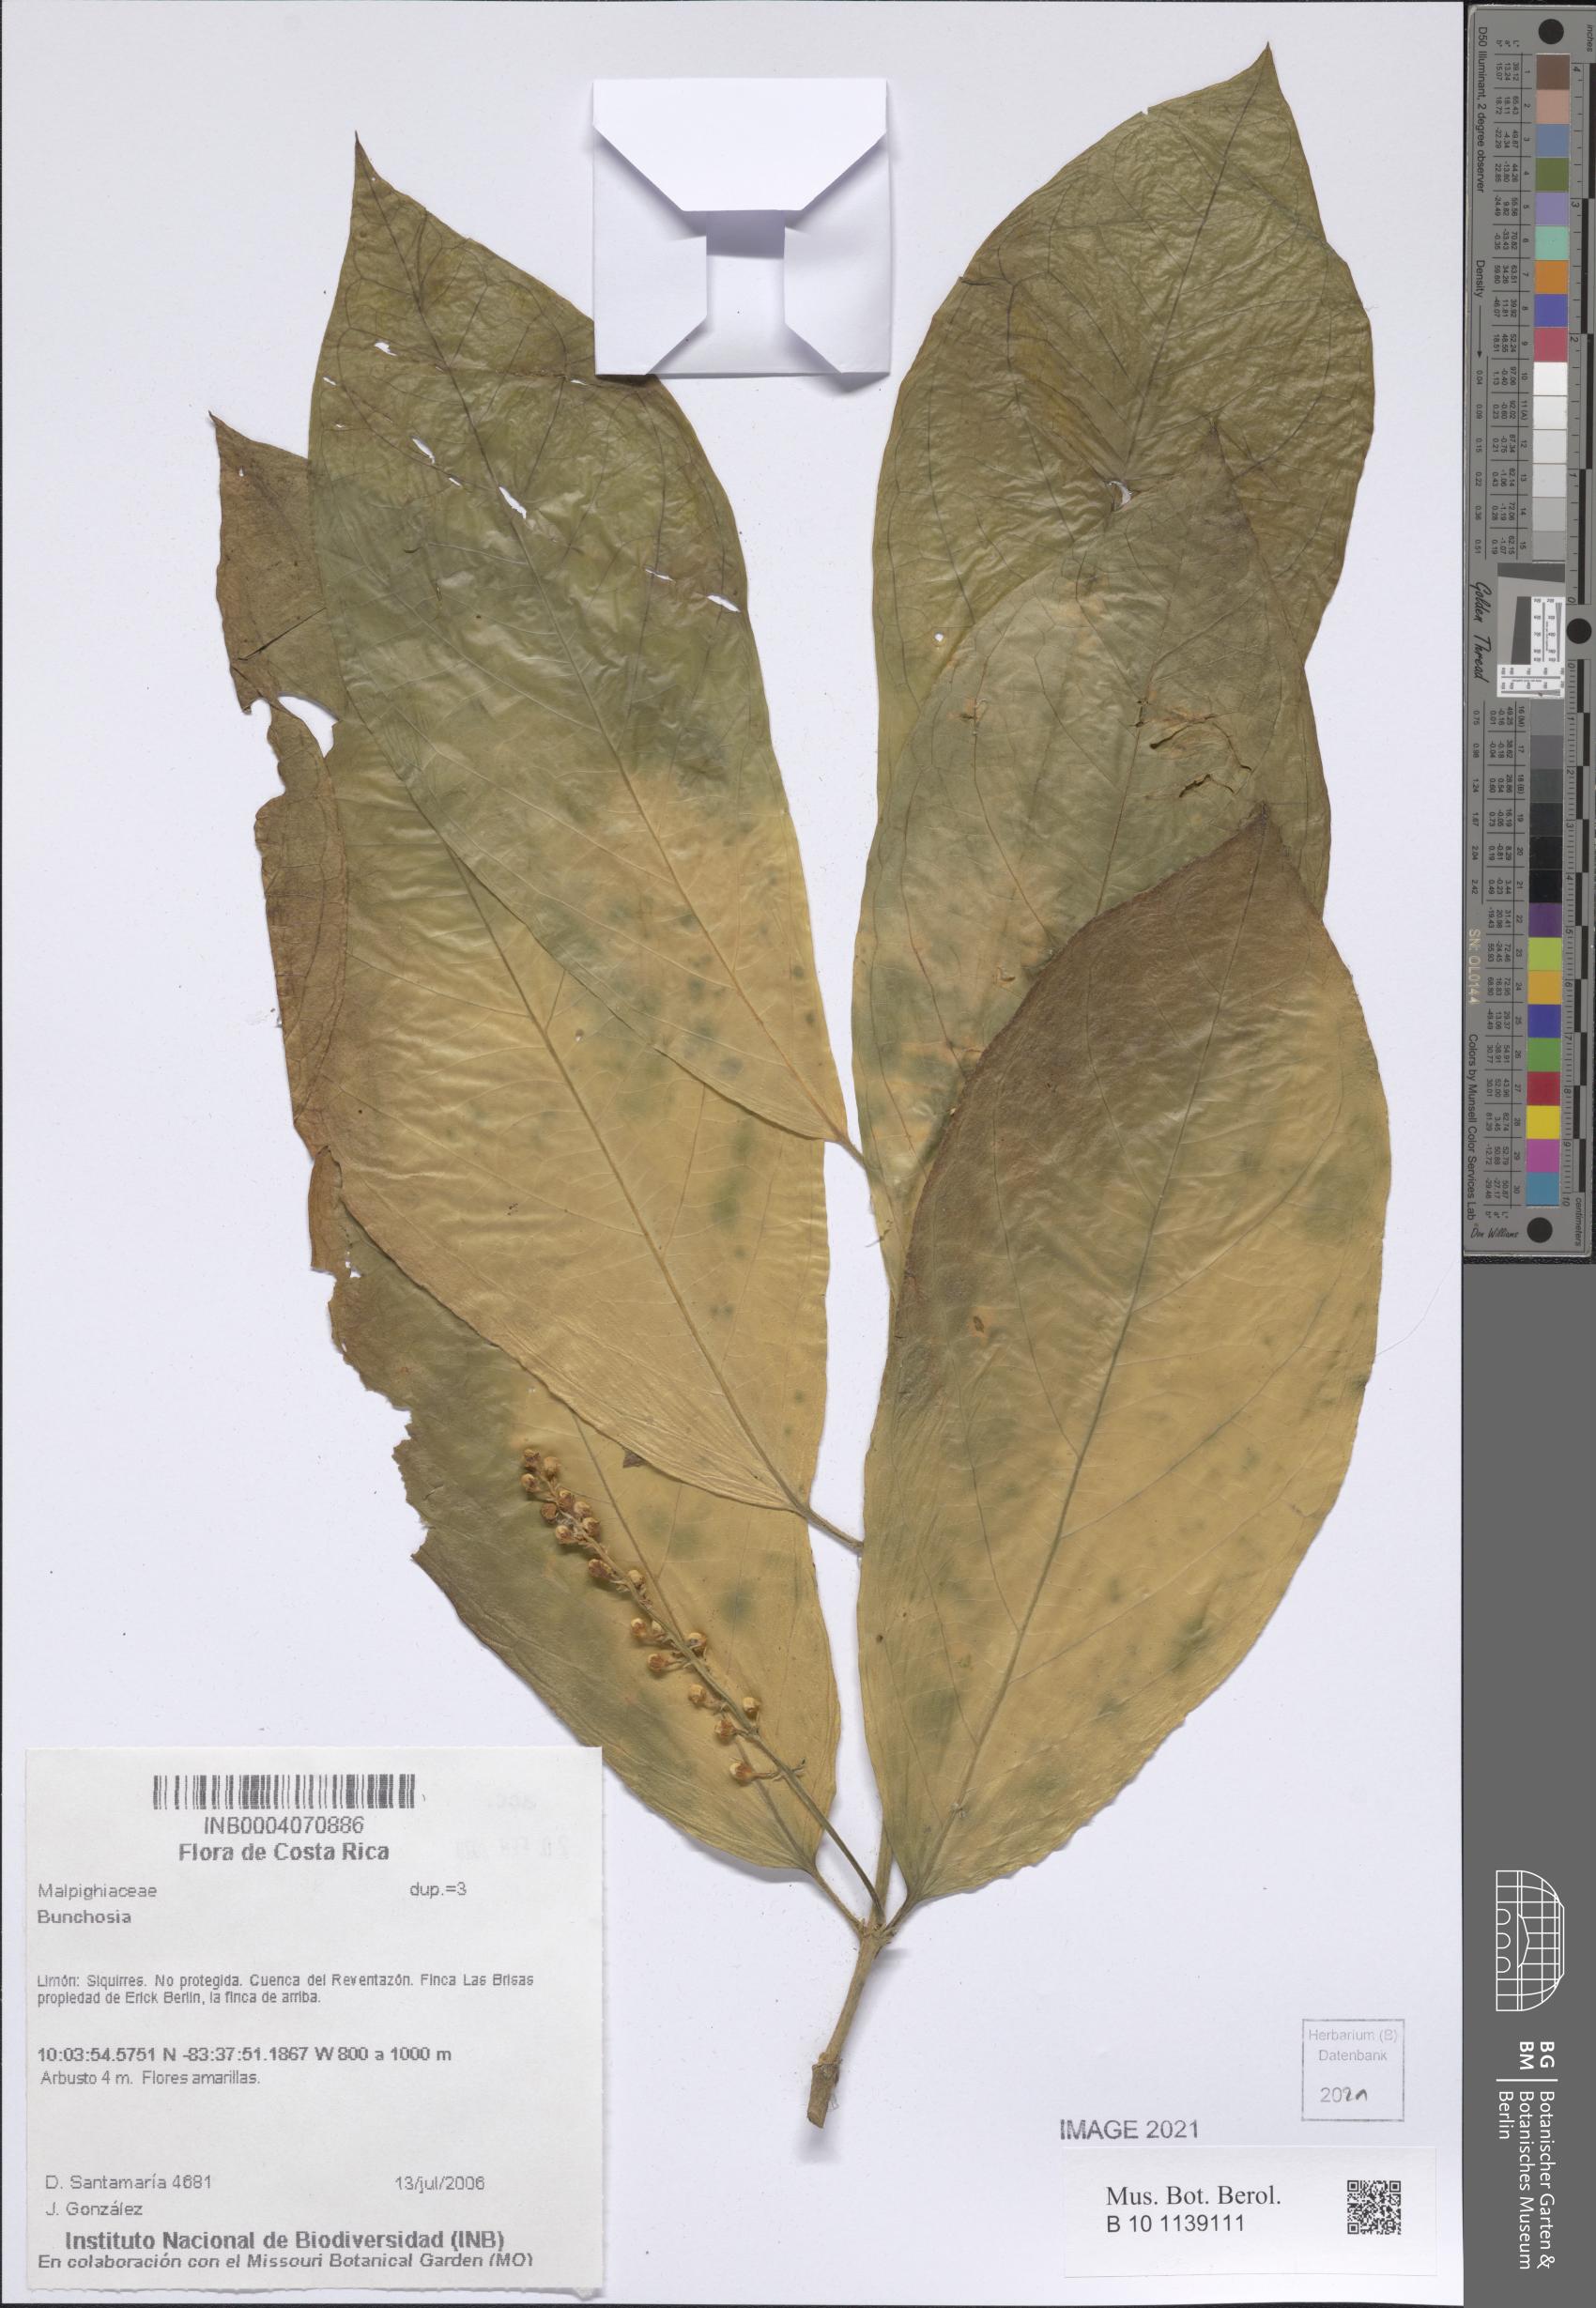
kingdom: Plantae
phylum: Tracheophyta
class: Magnoliopsida
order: Malpighiales
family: Malpighiaceae
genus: Bunchosia
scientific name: Bunchosia
